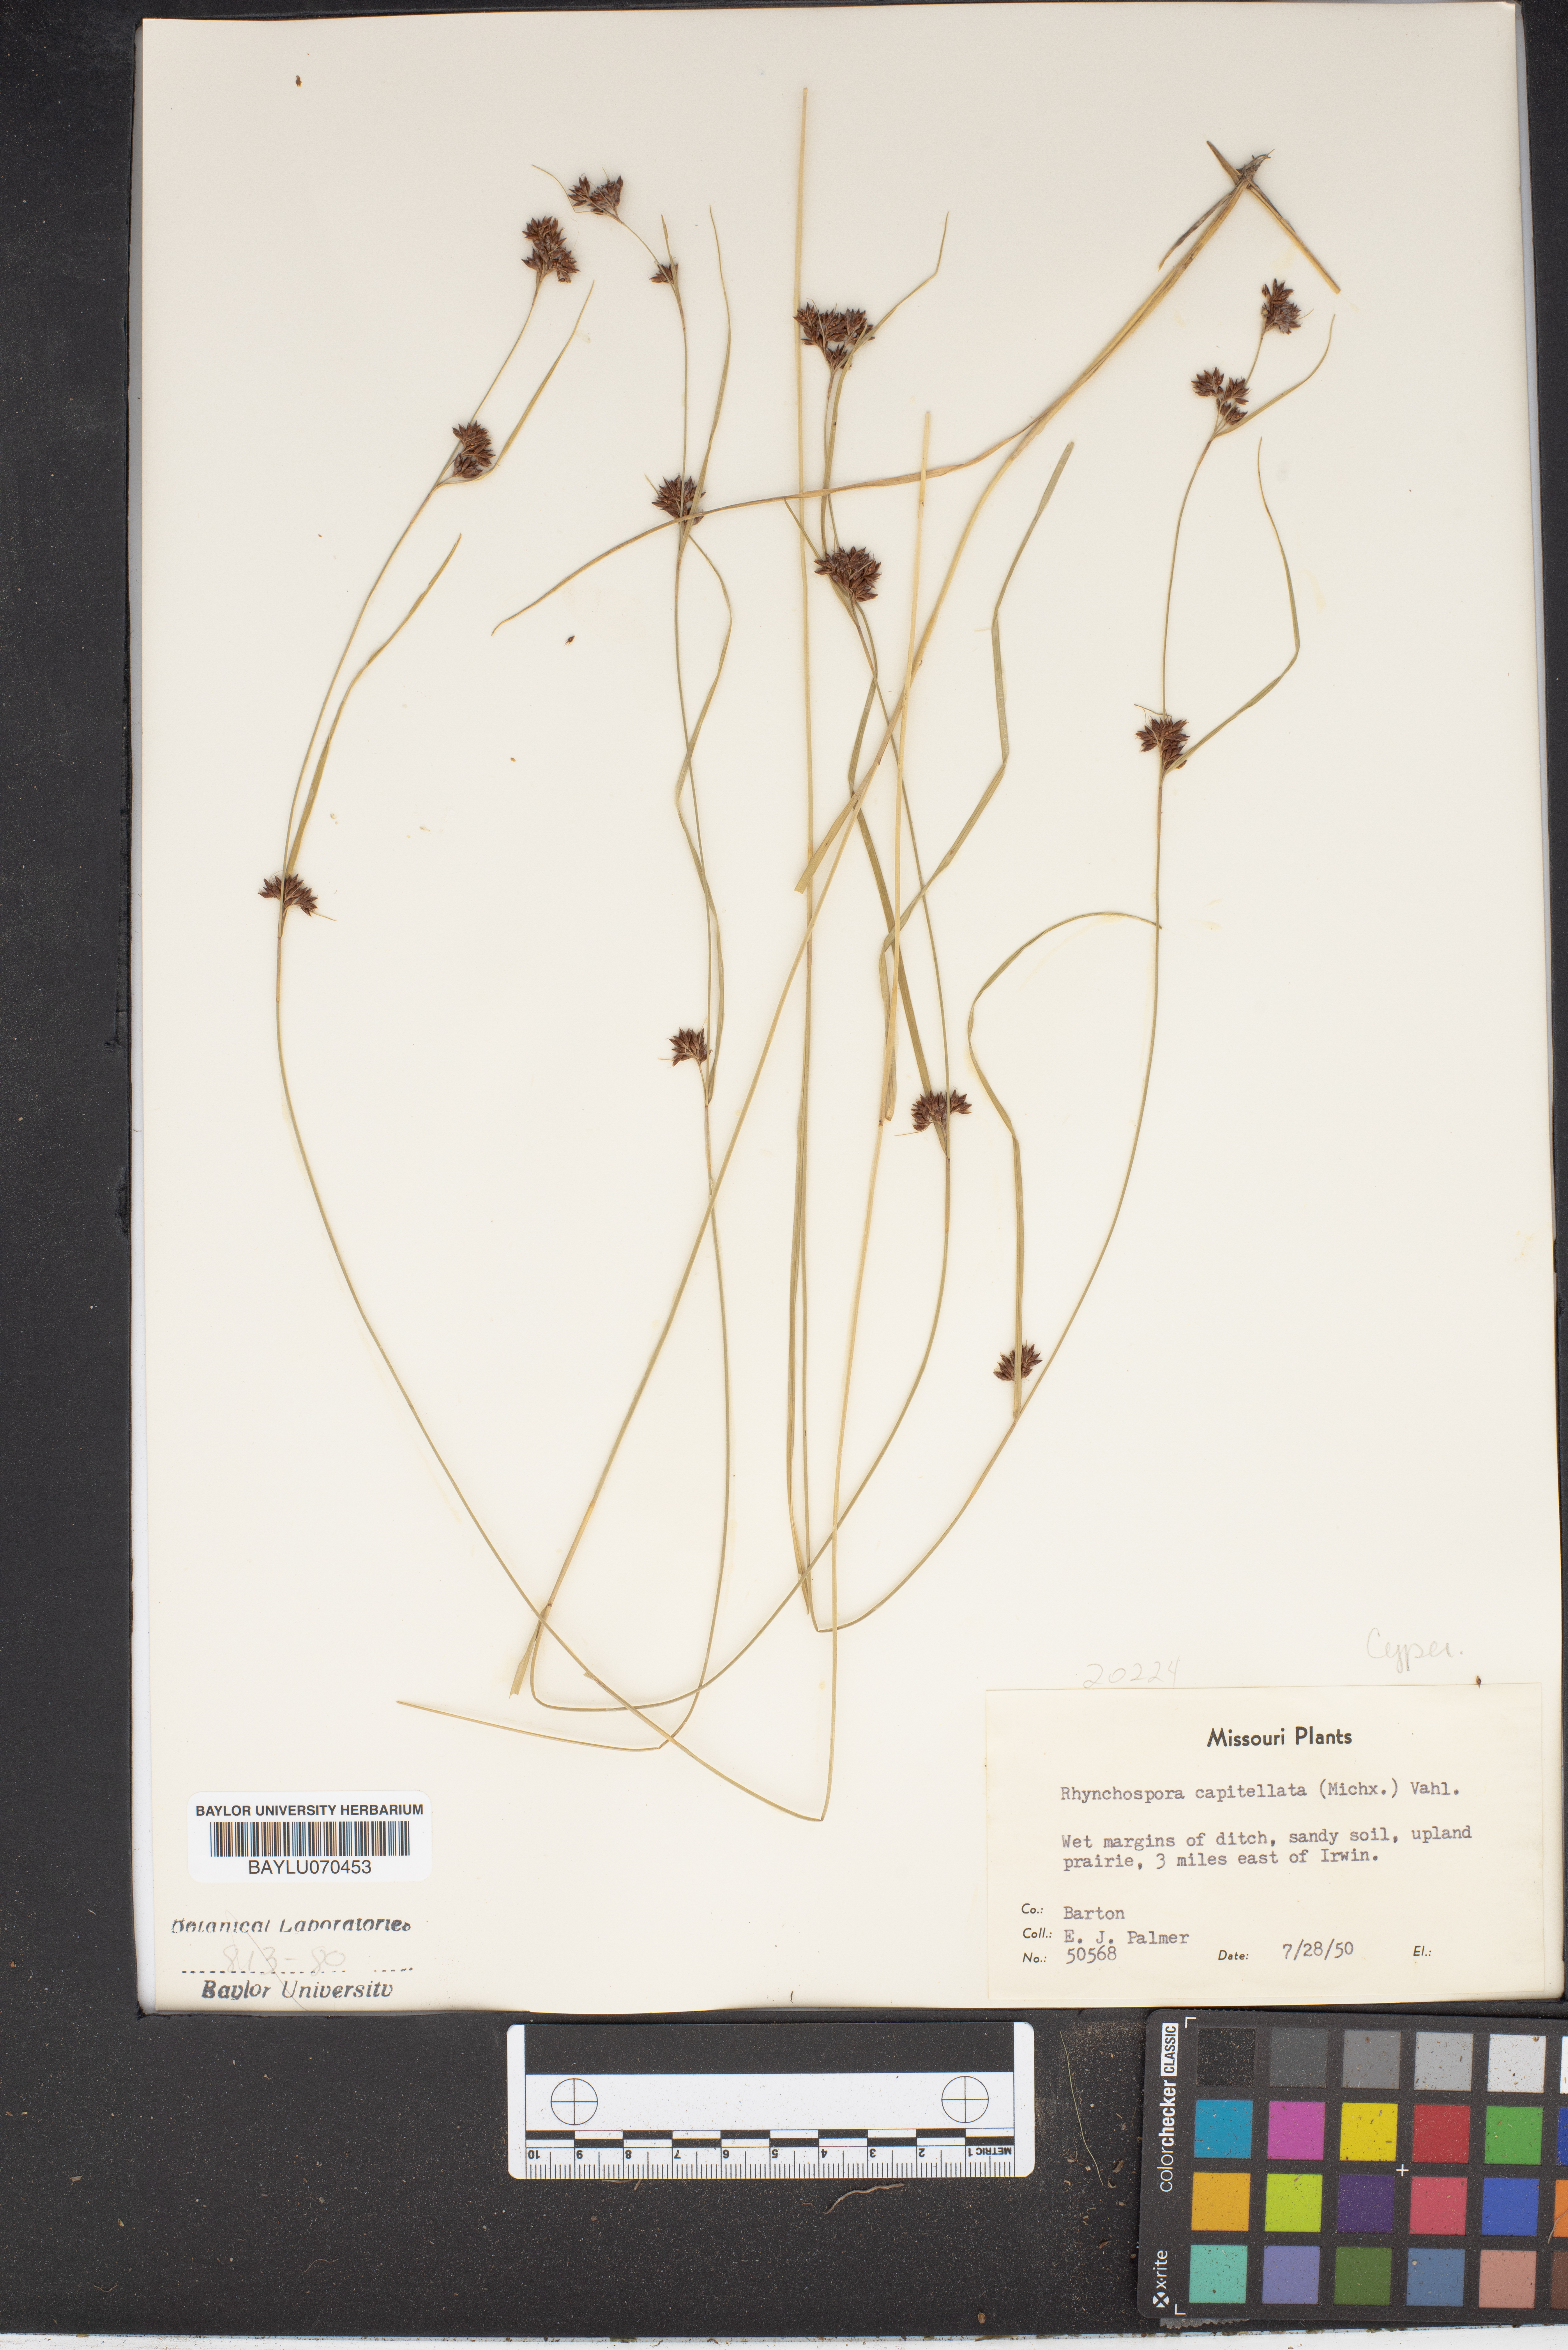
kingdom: Plantae
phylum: Tracheophyta
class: Liliopsida
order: Poales
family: Cyperaceae
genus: Rhynchospora
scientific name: Rhynchospora capitellata
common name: Brownish beaksedge
